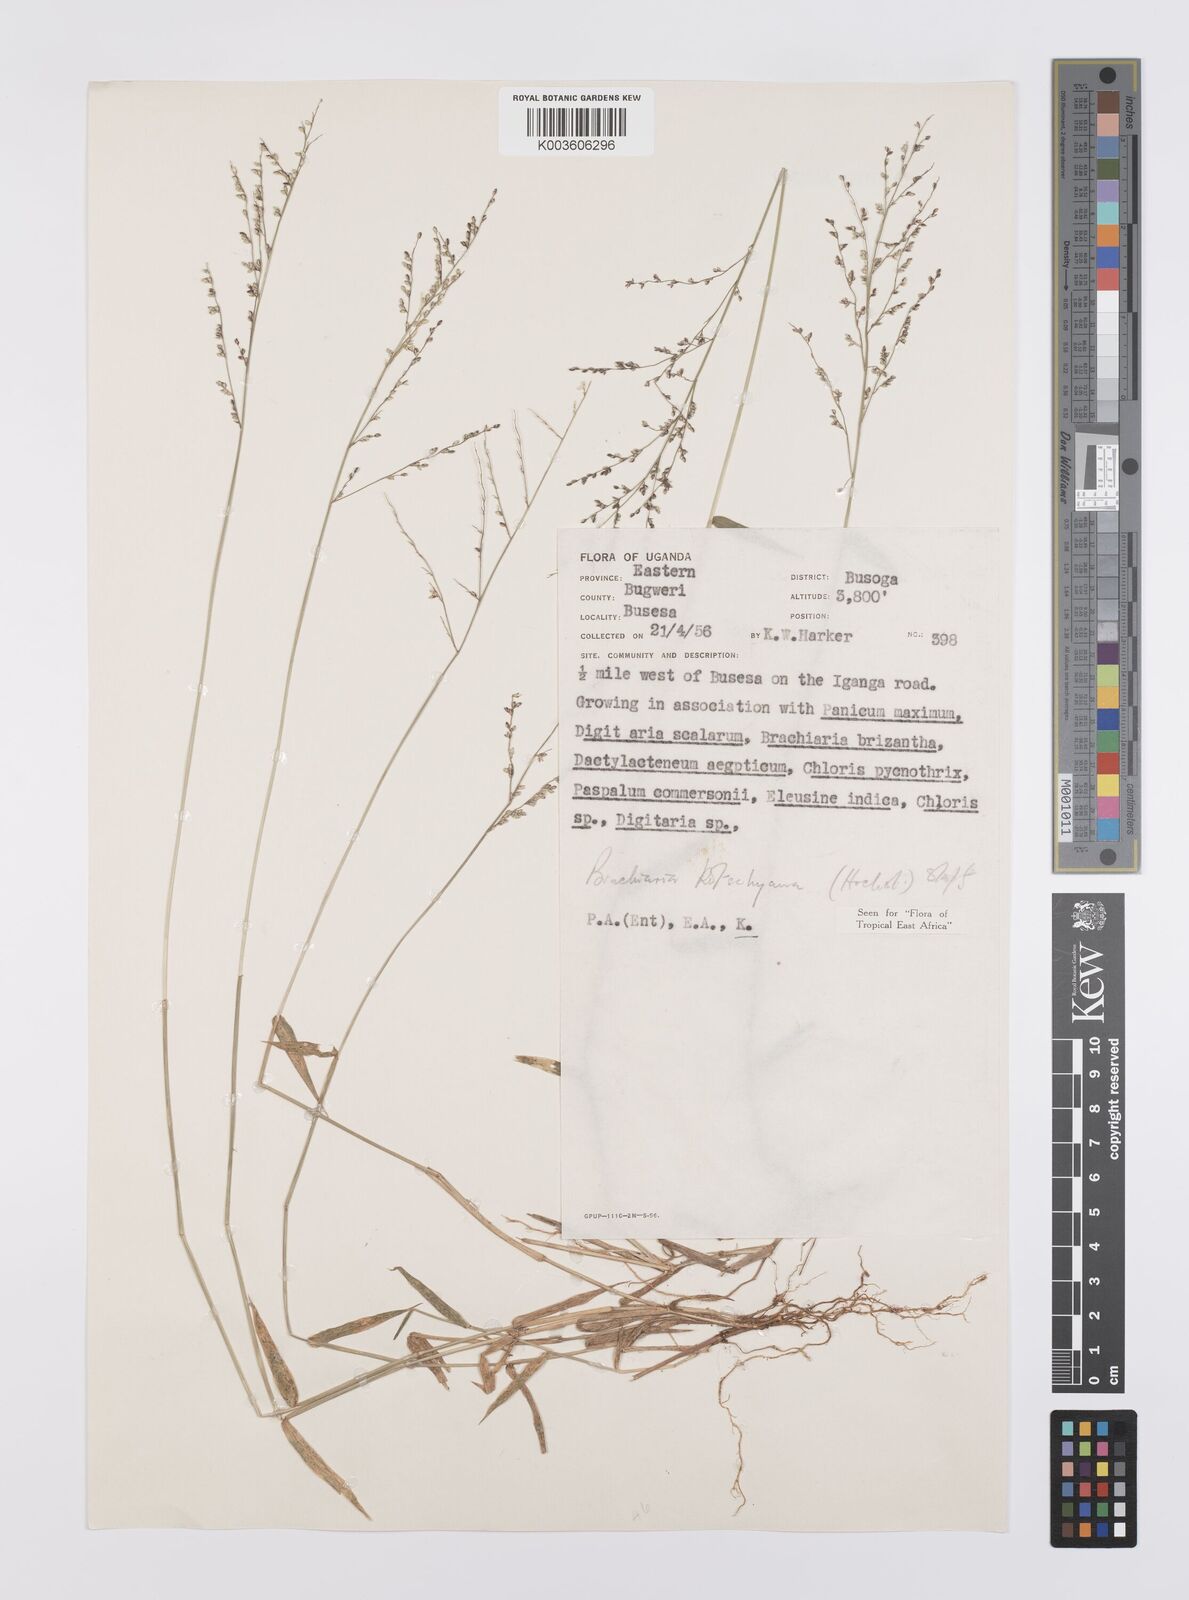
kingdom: Plantae
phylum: Tracheophyta
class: Liliopsida
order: Poales
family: Poaceae
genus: Urochloa
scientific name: Urochloa comata
